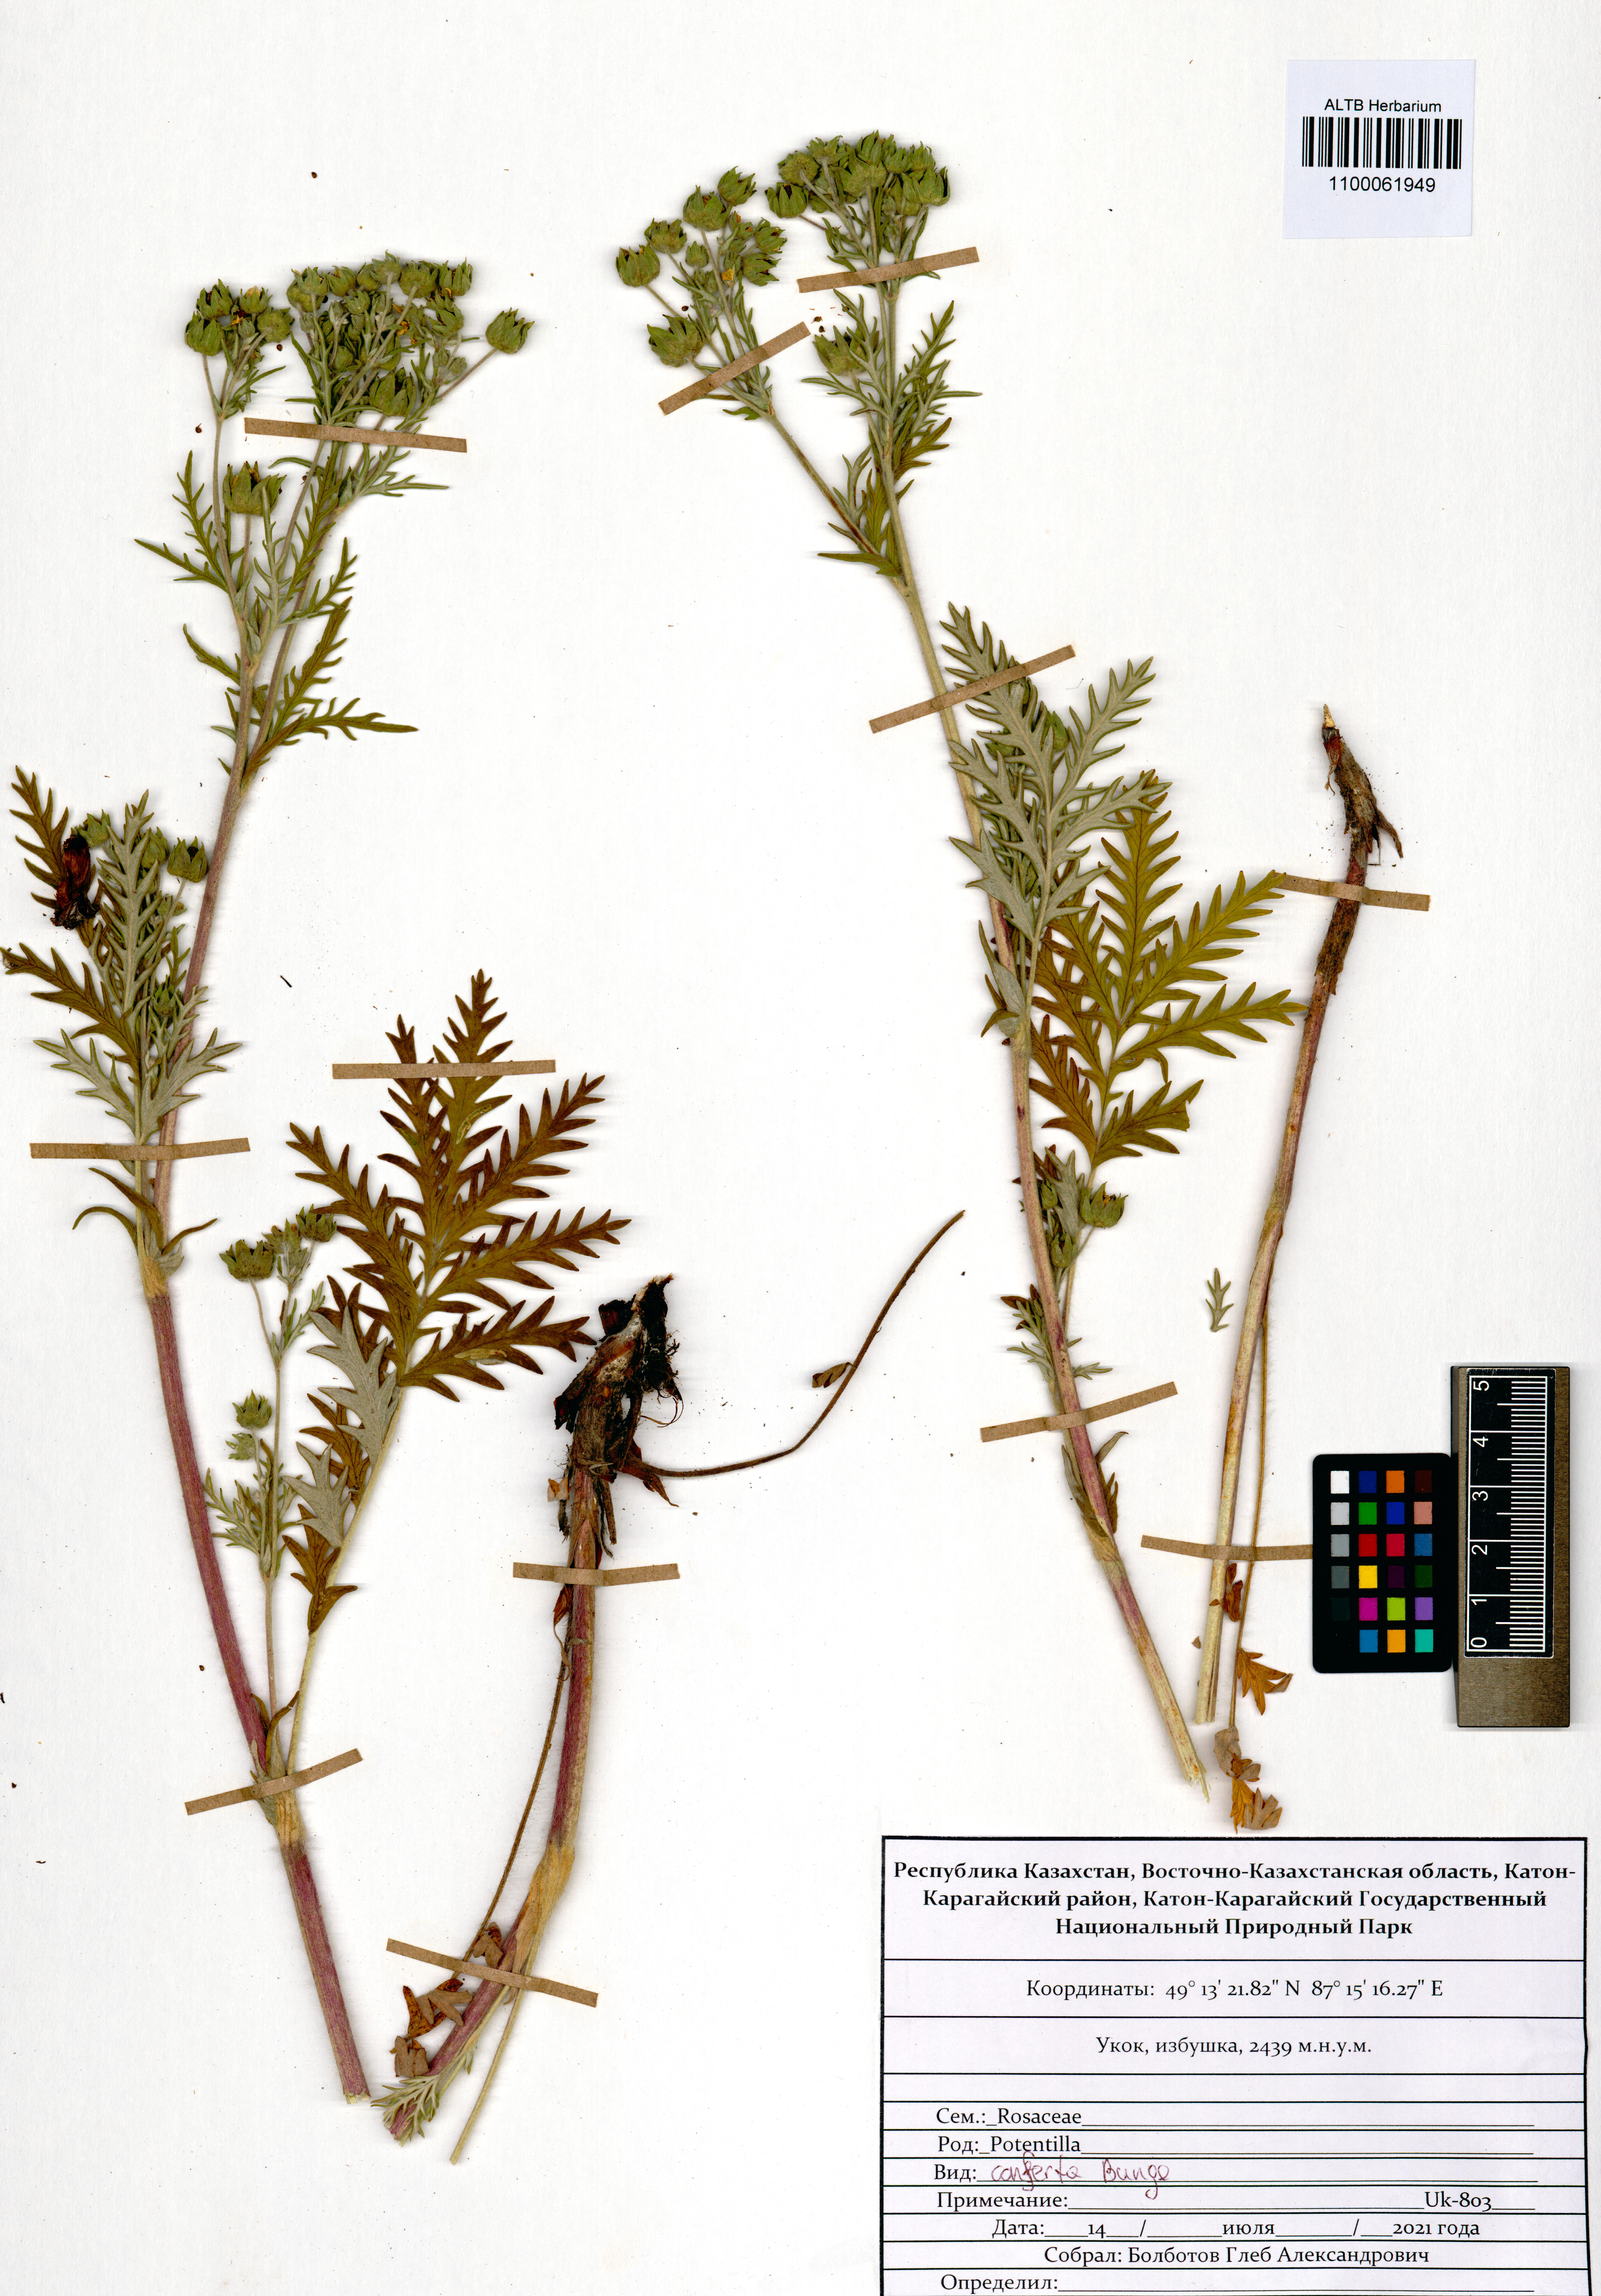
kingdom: Plantae
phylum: Tracheophyta
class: Magnoliopsida
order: Rosales
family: Rosaceae
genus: Potentilla
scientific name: Potentilla conferta
